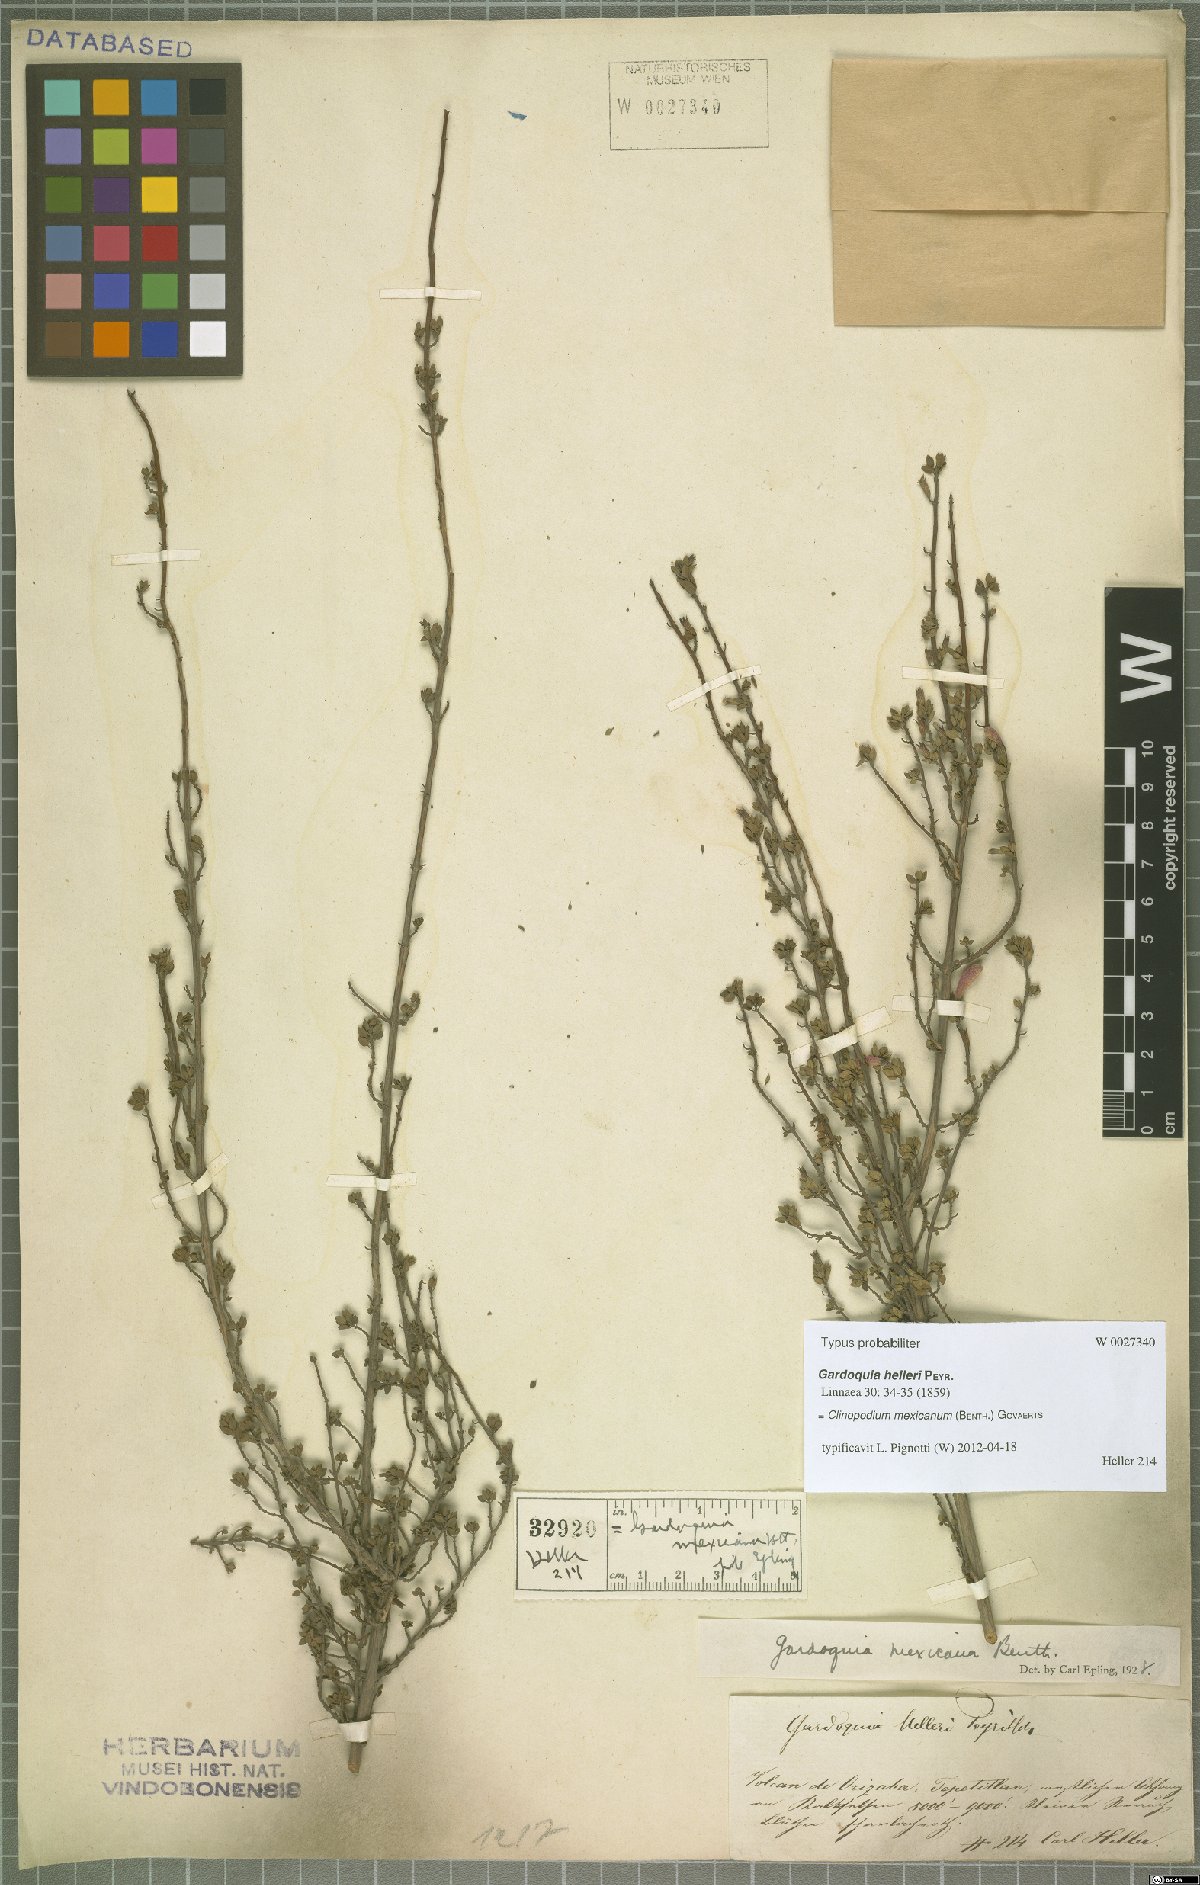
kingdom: Plantae
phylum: Tracheophyta
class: Magnoliopsida
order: Lamiales
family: Lamiaceae
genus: Clinopodium
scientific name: Clinopodium mexicanum
